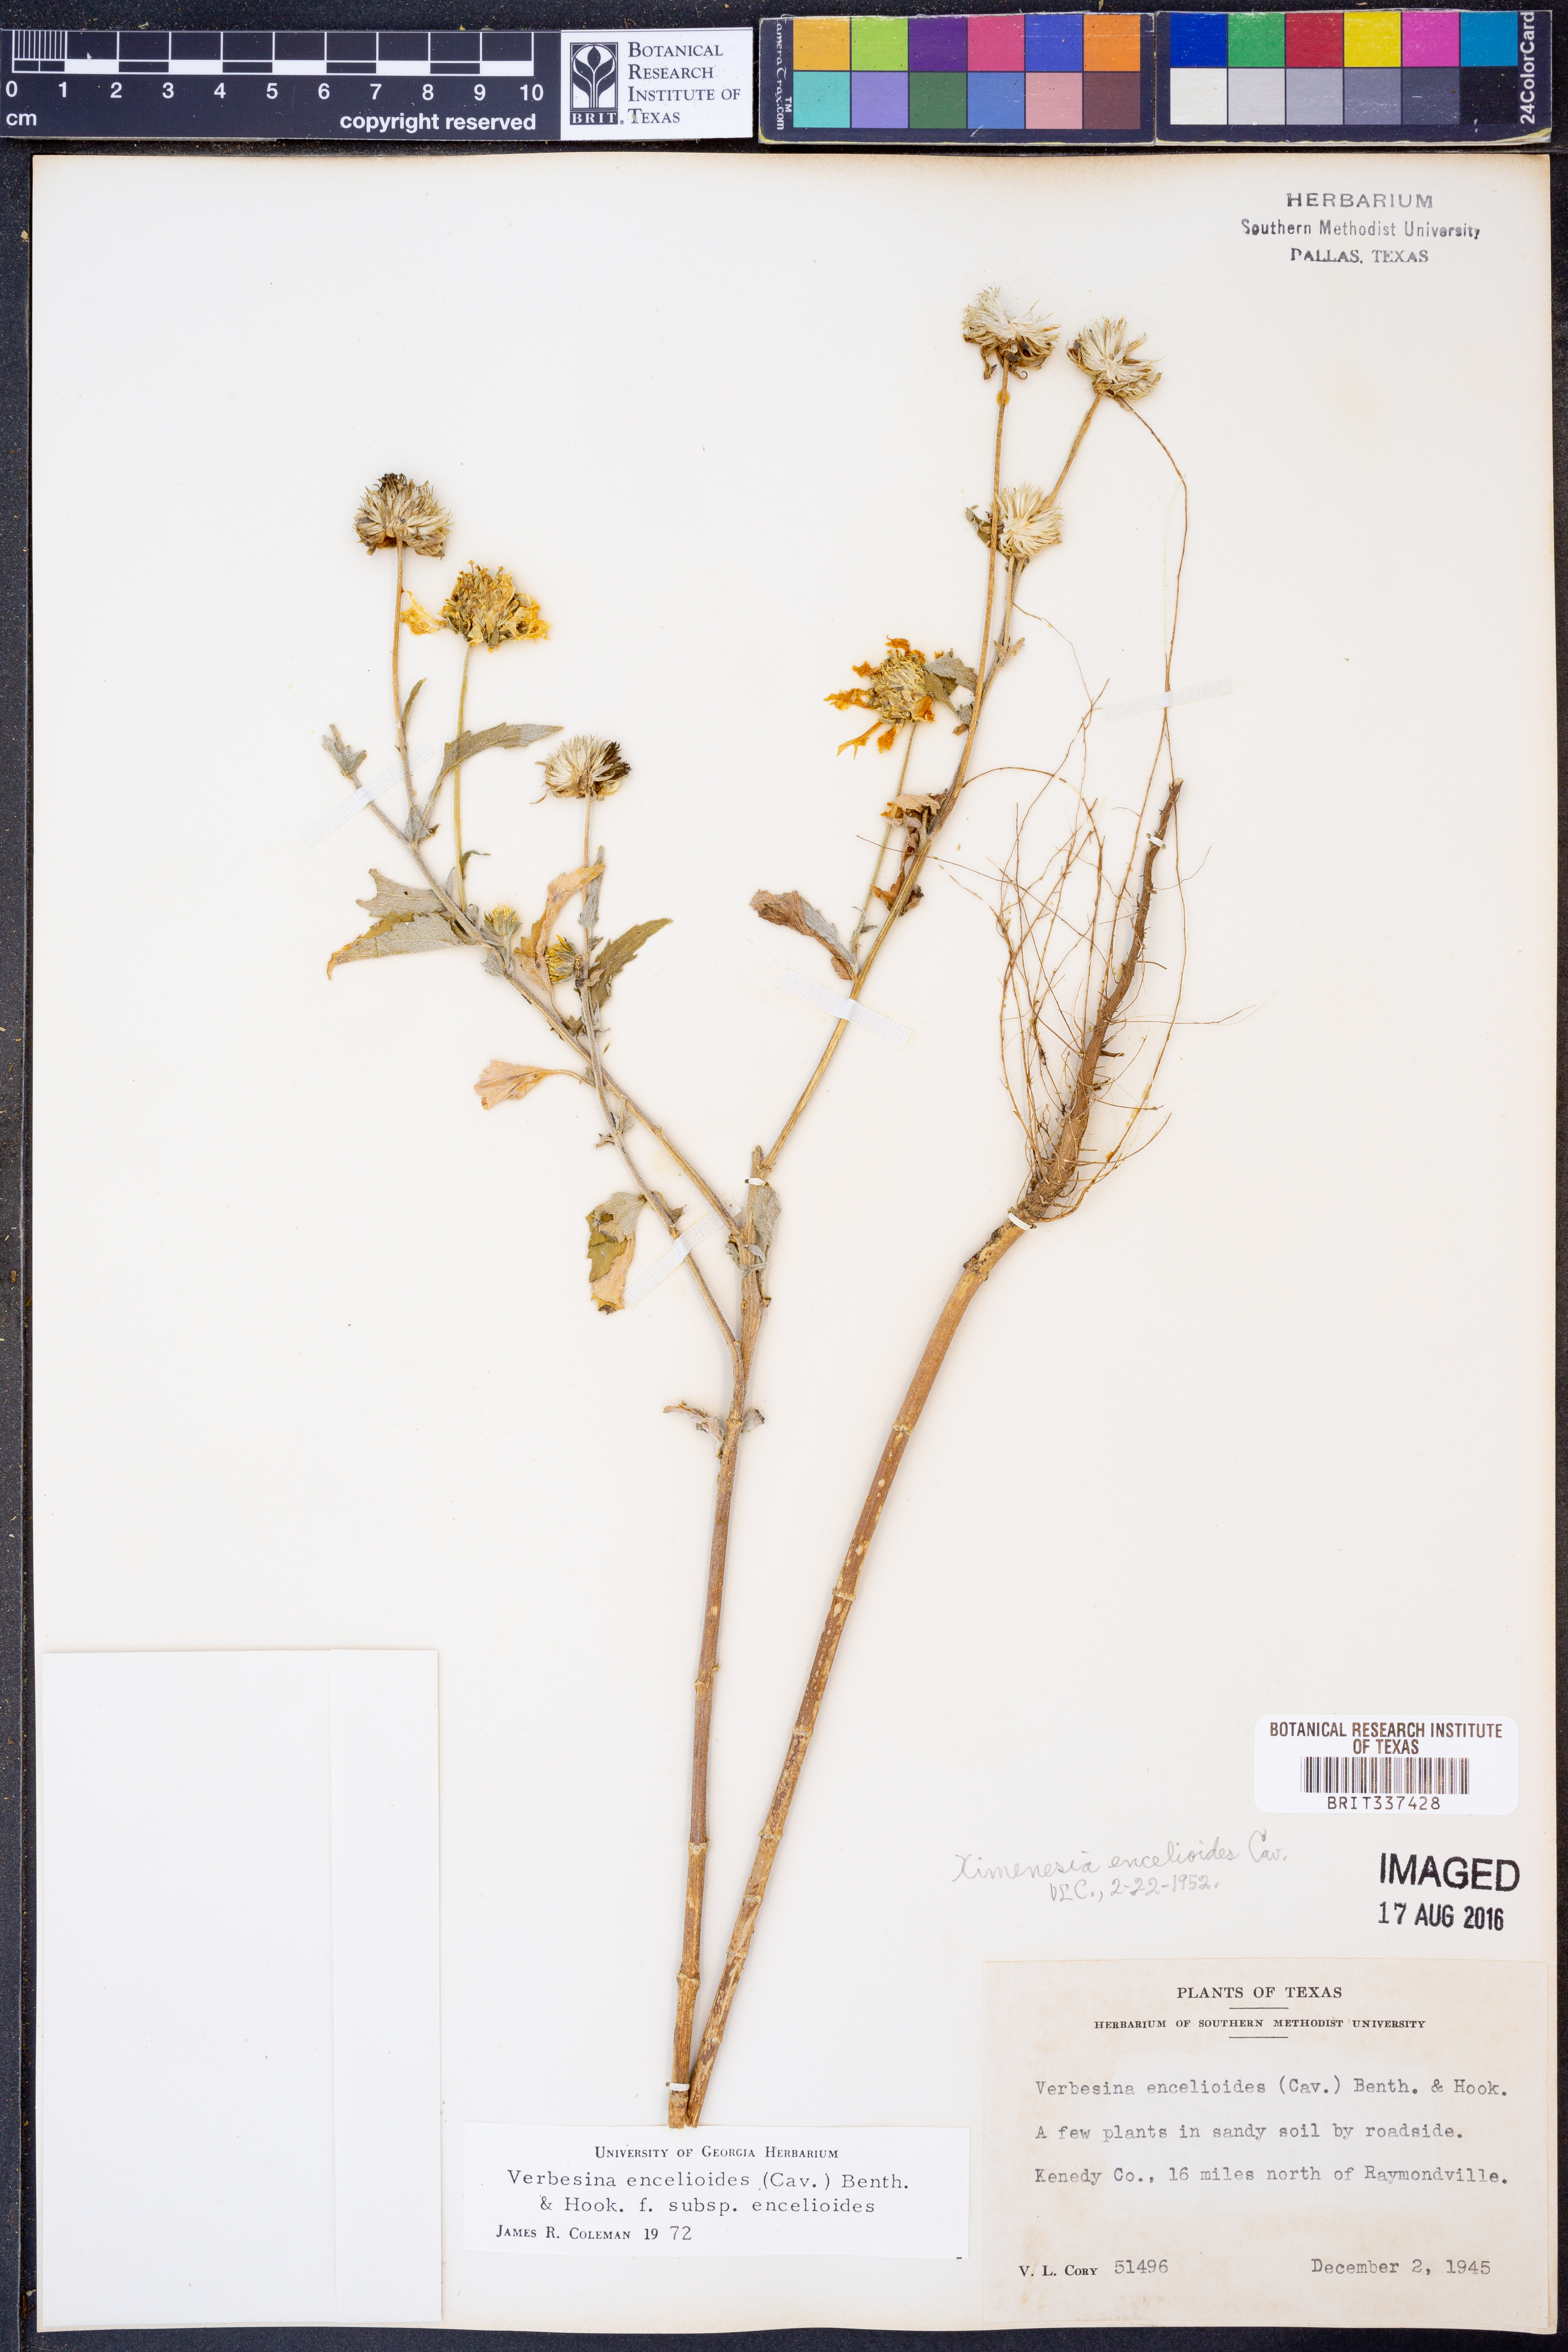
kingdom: Plantae
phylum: Tracheophyta
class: Magnoliopsida
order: Asterales
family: Asteraceae
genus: Verbesina
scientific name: Verbesina encelioides
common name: Golden crownbeard
